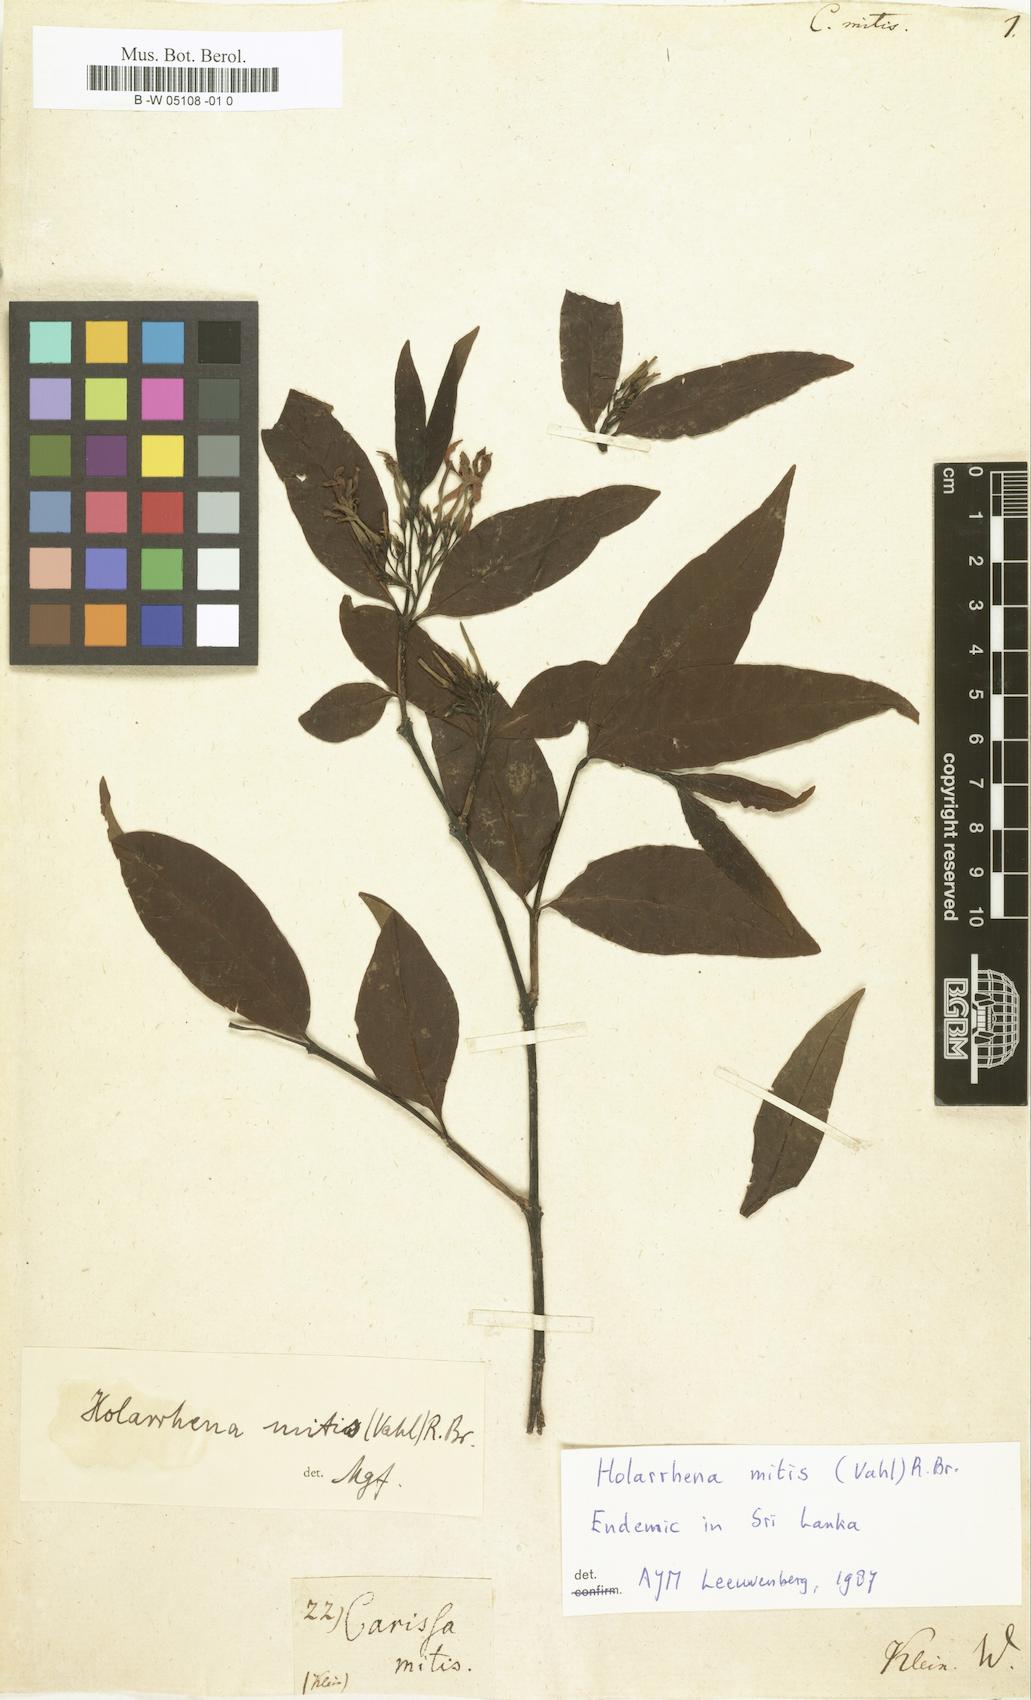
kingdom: Plantae
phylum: Tracheophyta
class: Magnoliopsida
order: Gentianales
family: Apocynaceae
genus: Carissa
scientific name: Carissa spinarum
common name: Egyptian carissa
